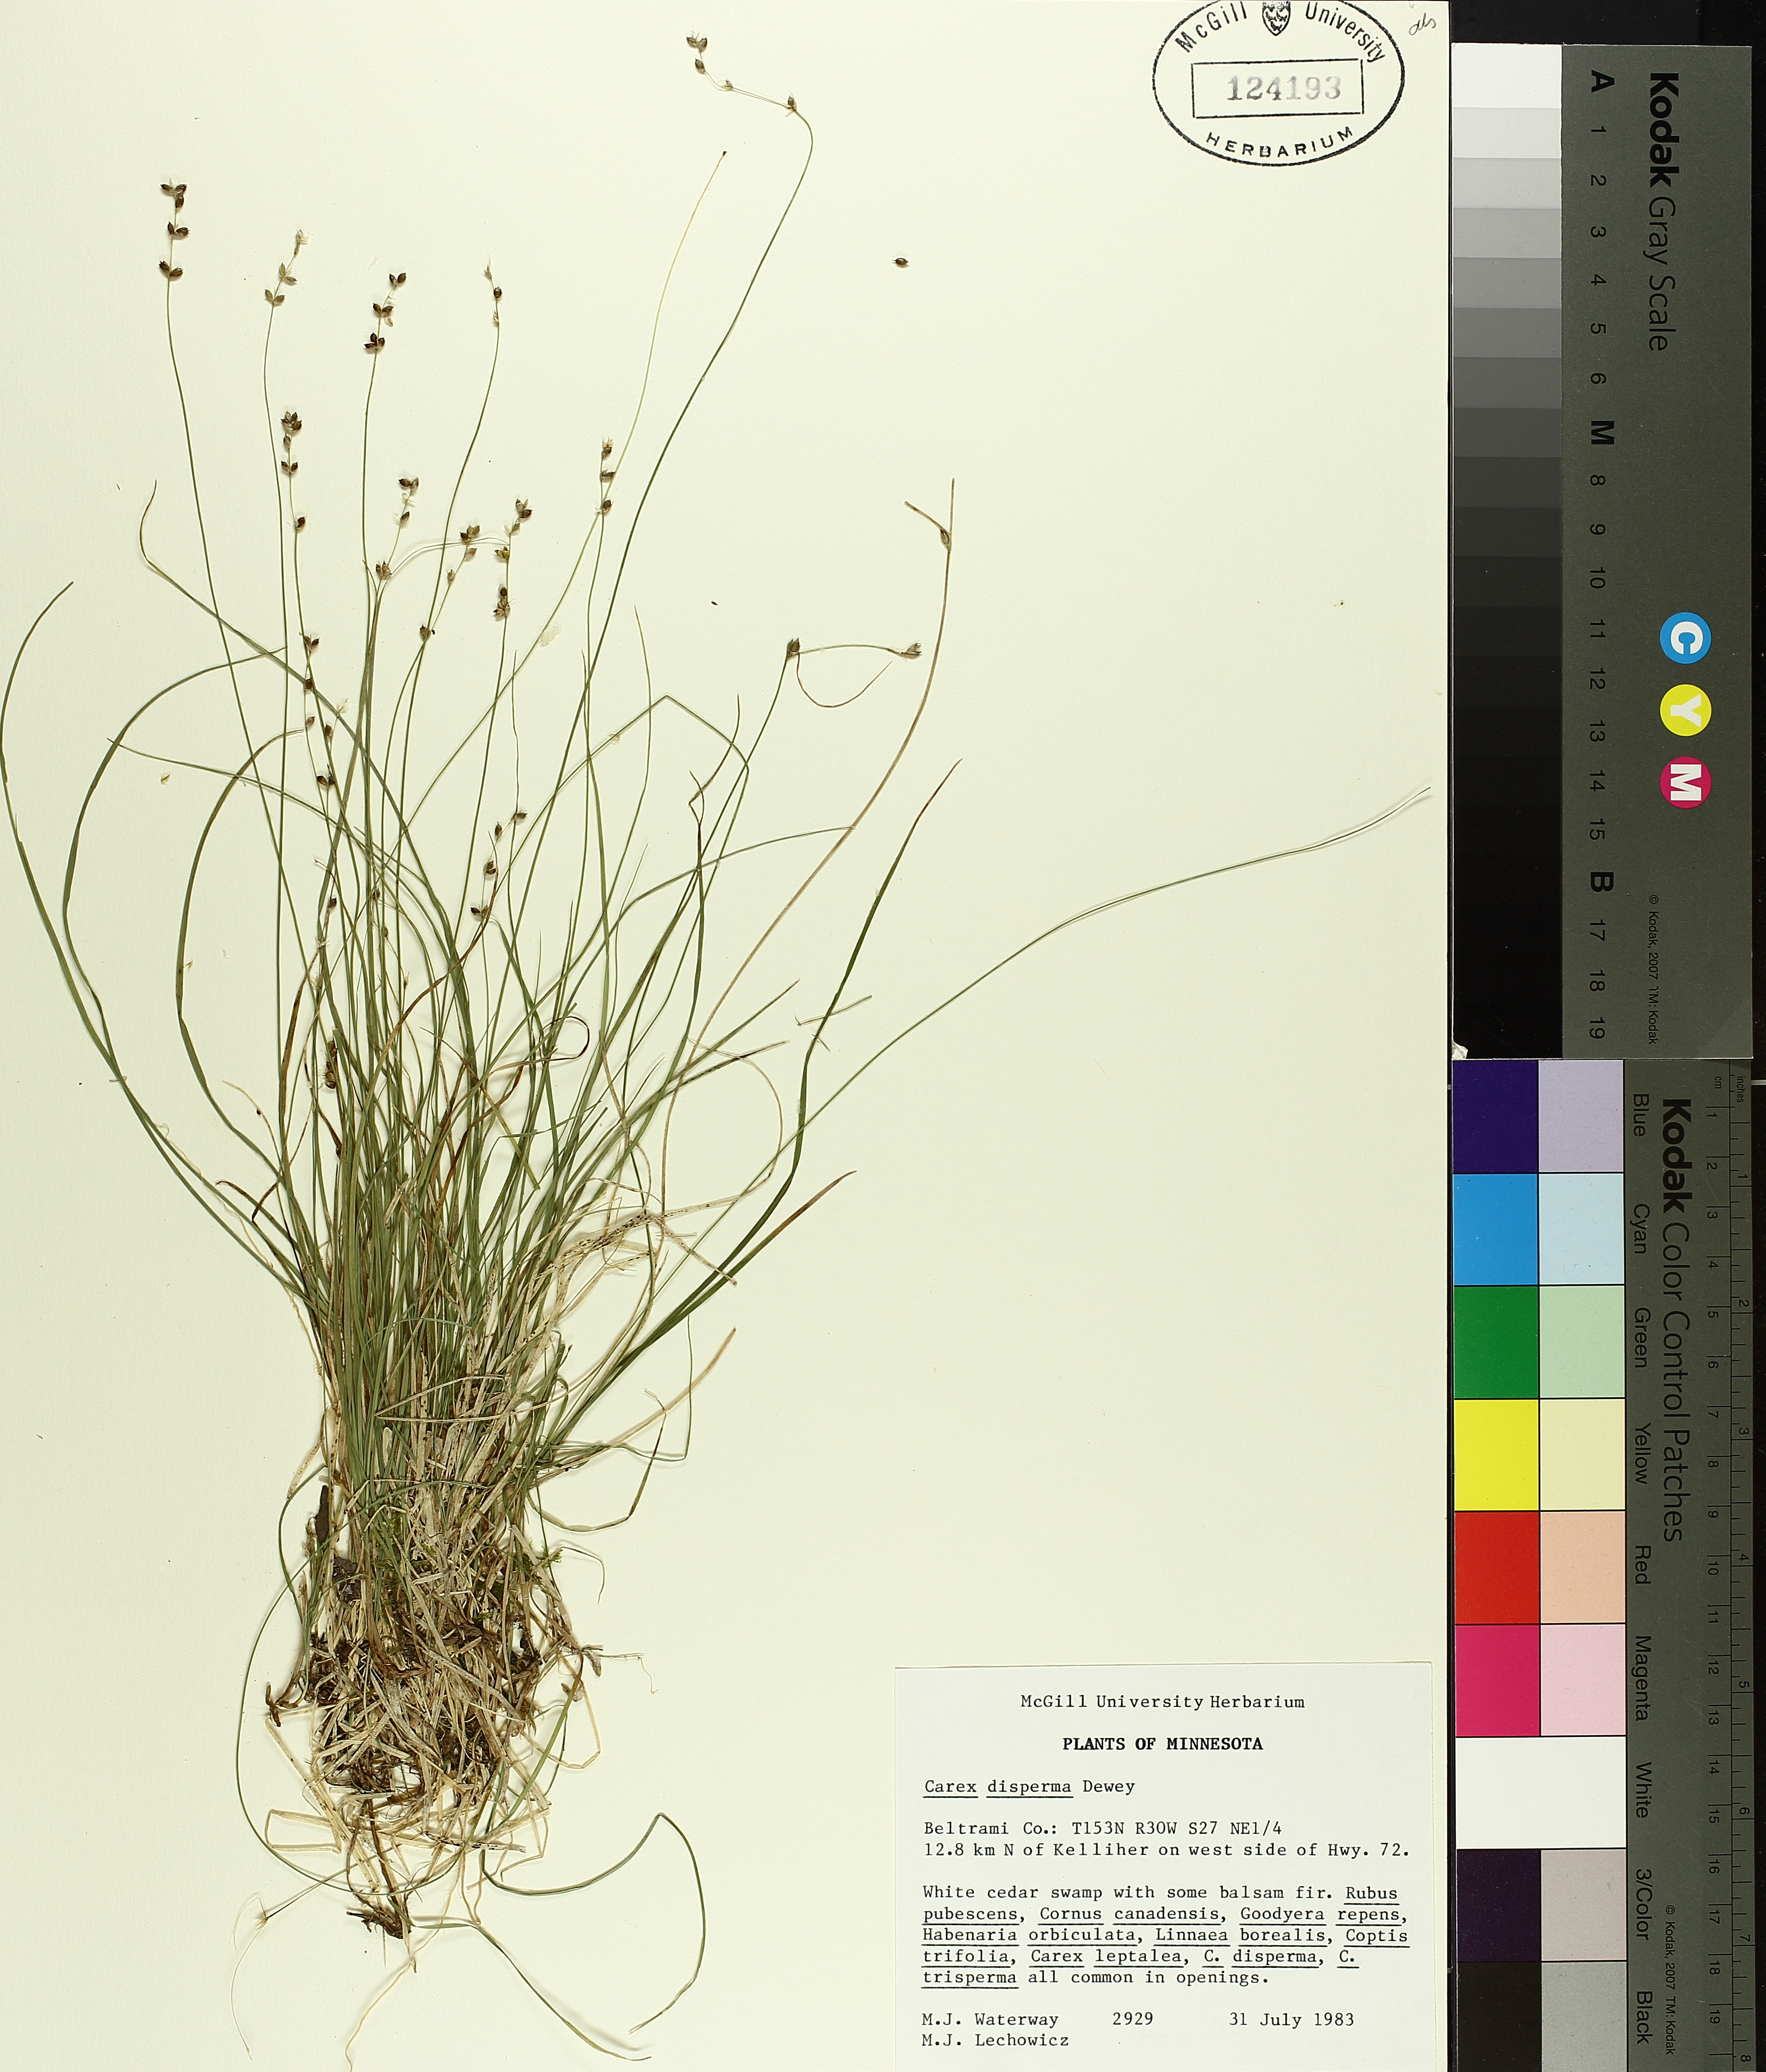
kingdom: Plantae
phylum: Tracheophyta
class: Liliopsida
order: Poales
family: Cyperaceae
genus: Carex
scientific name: Carex disperma
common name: Short-leaved sedge
